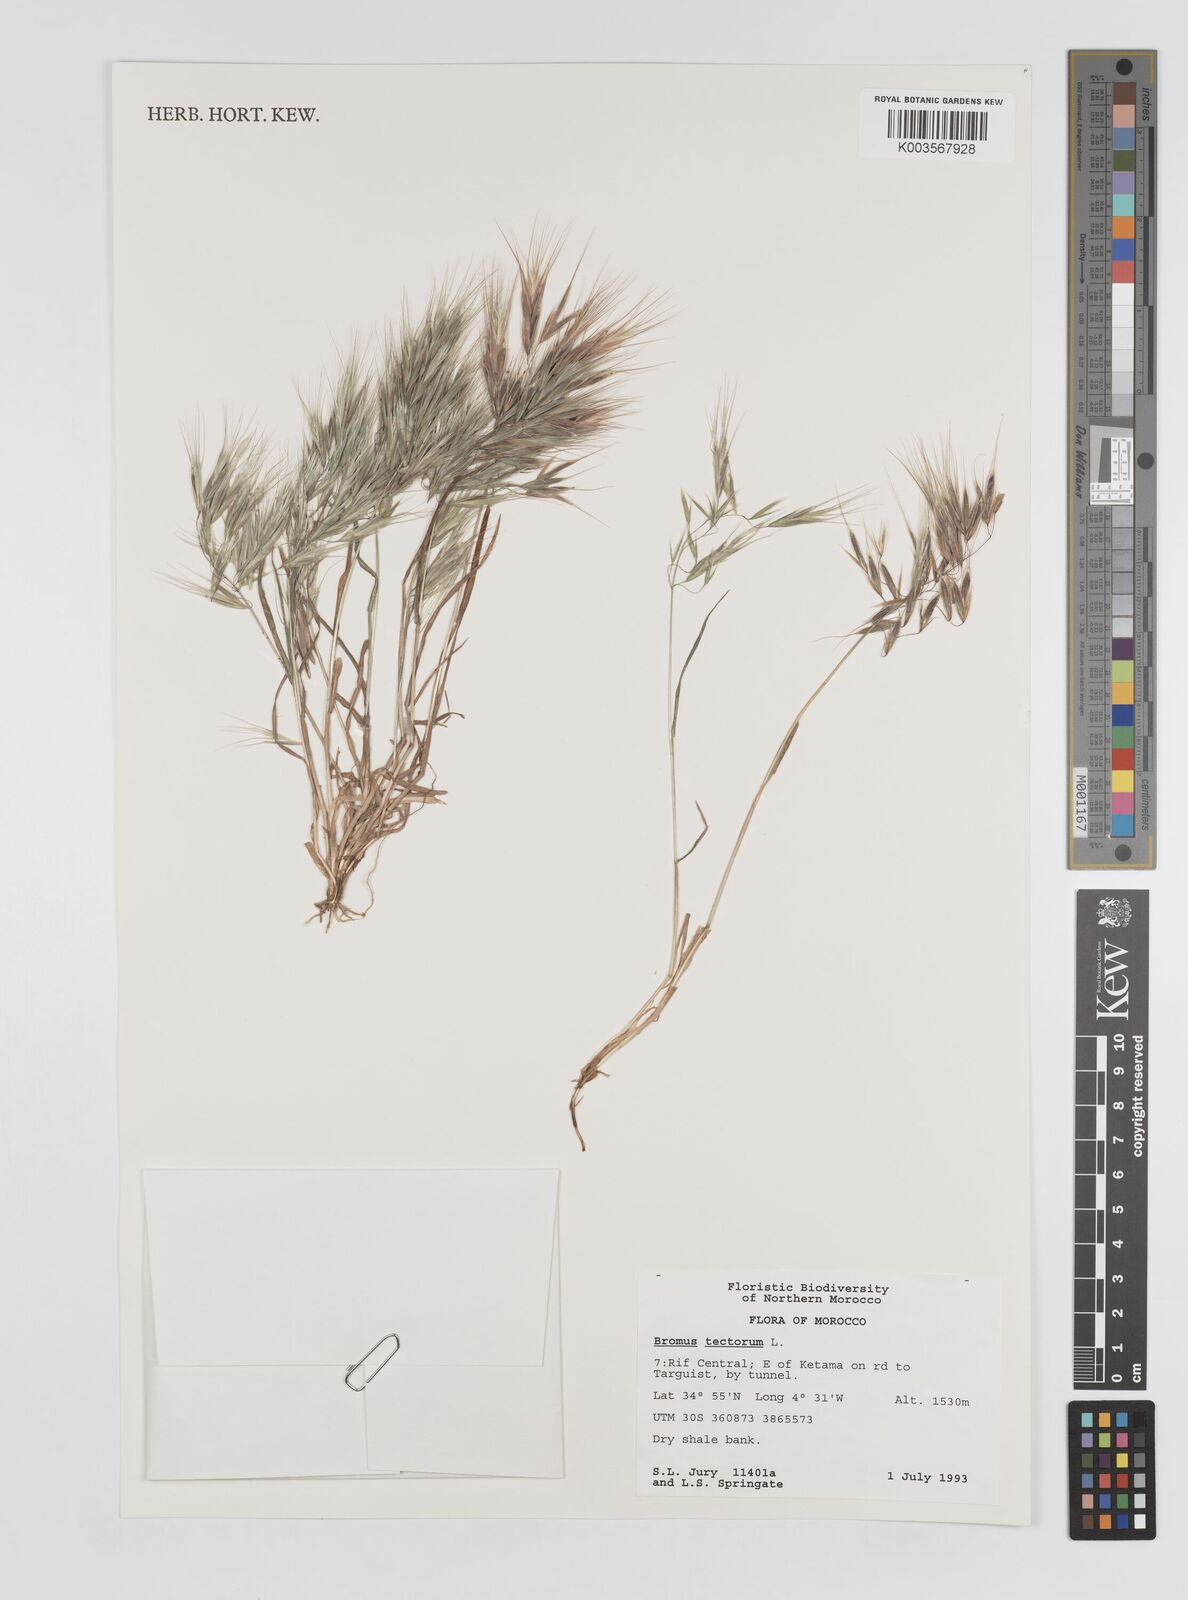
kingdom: Plantae
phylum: Tracheophyta
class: Liliopsida
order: Poales
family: Poaceae
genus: Bromus
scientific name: Bromus tectorum
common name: Cheatgrass
